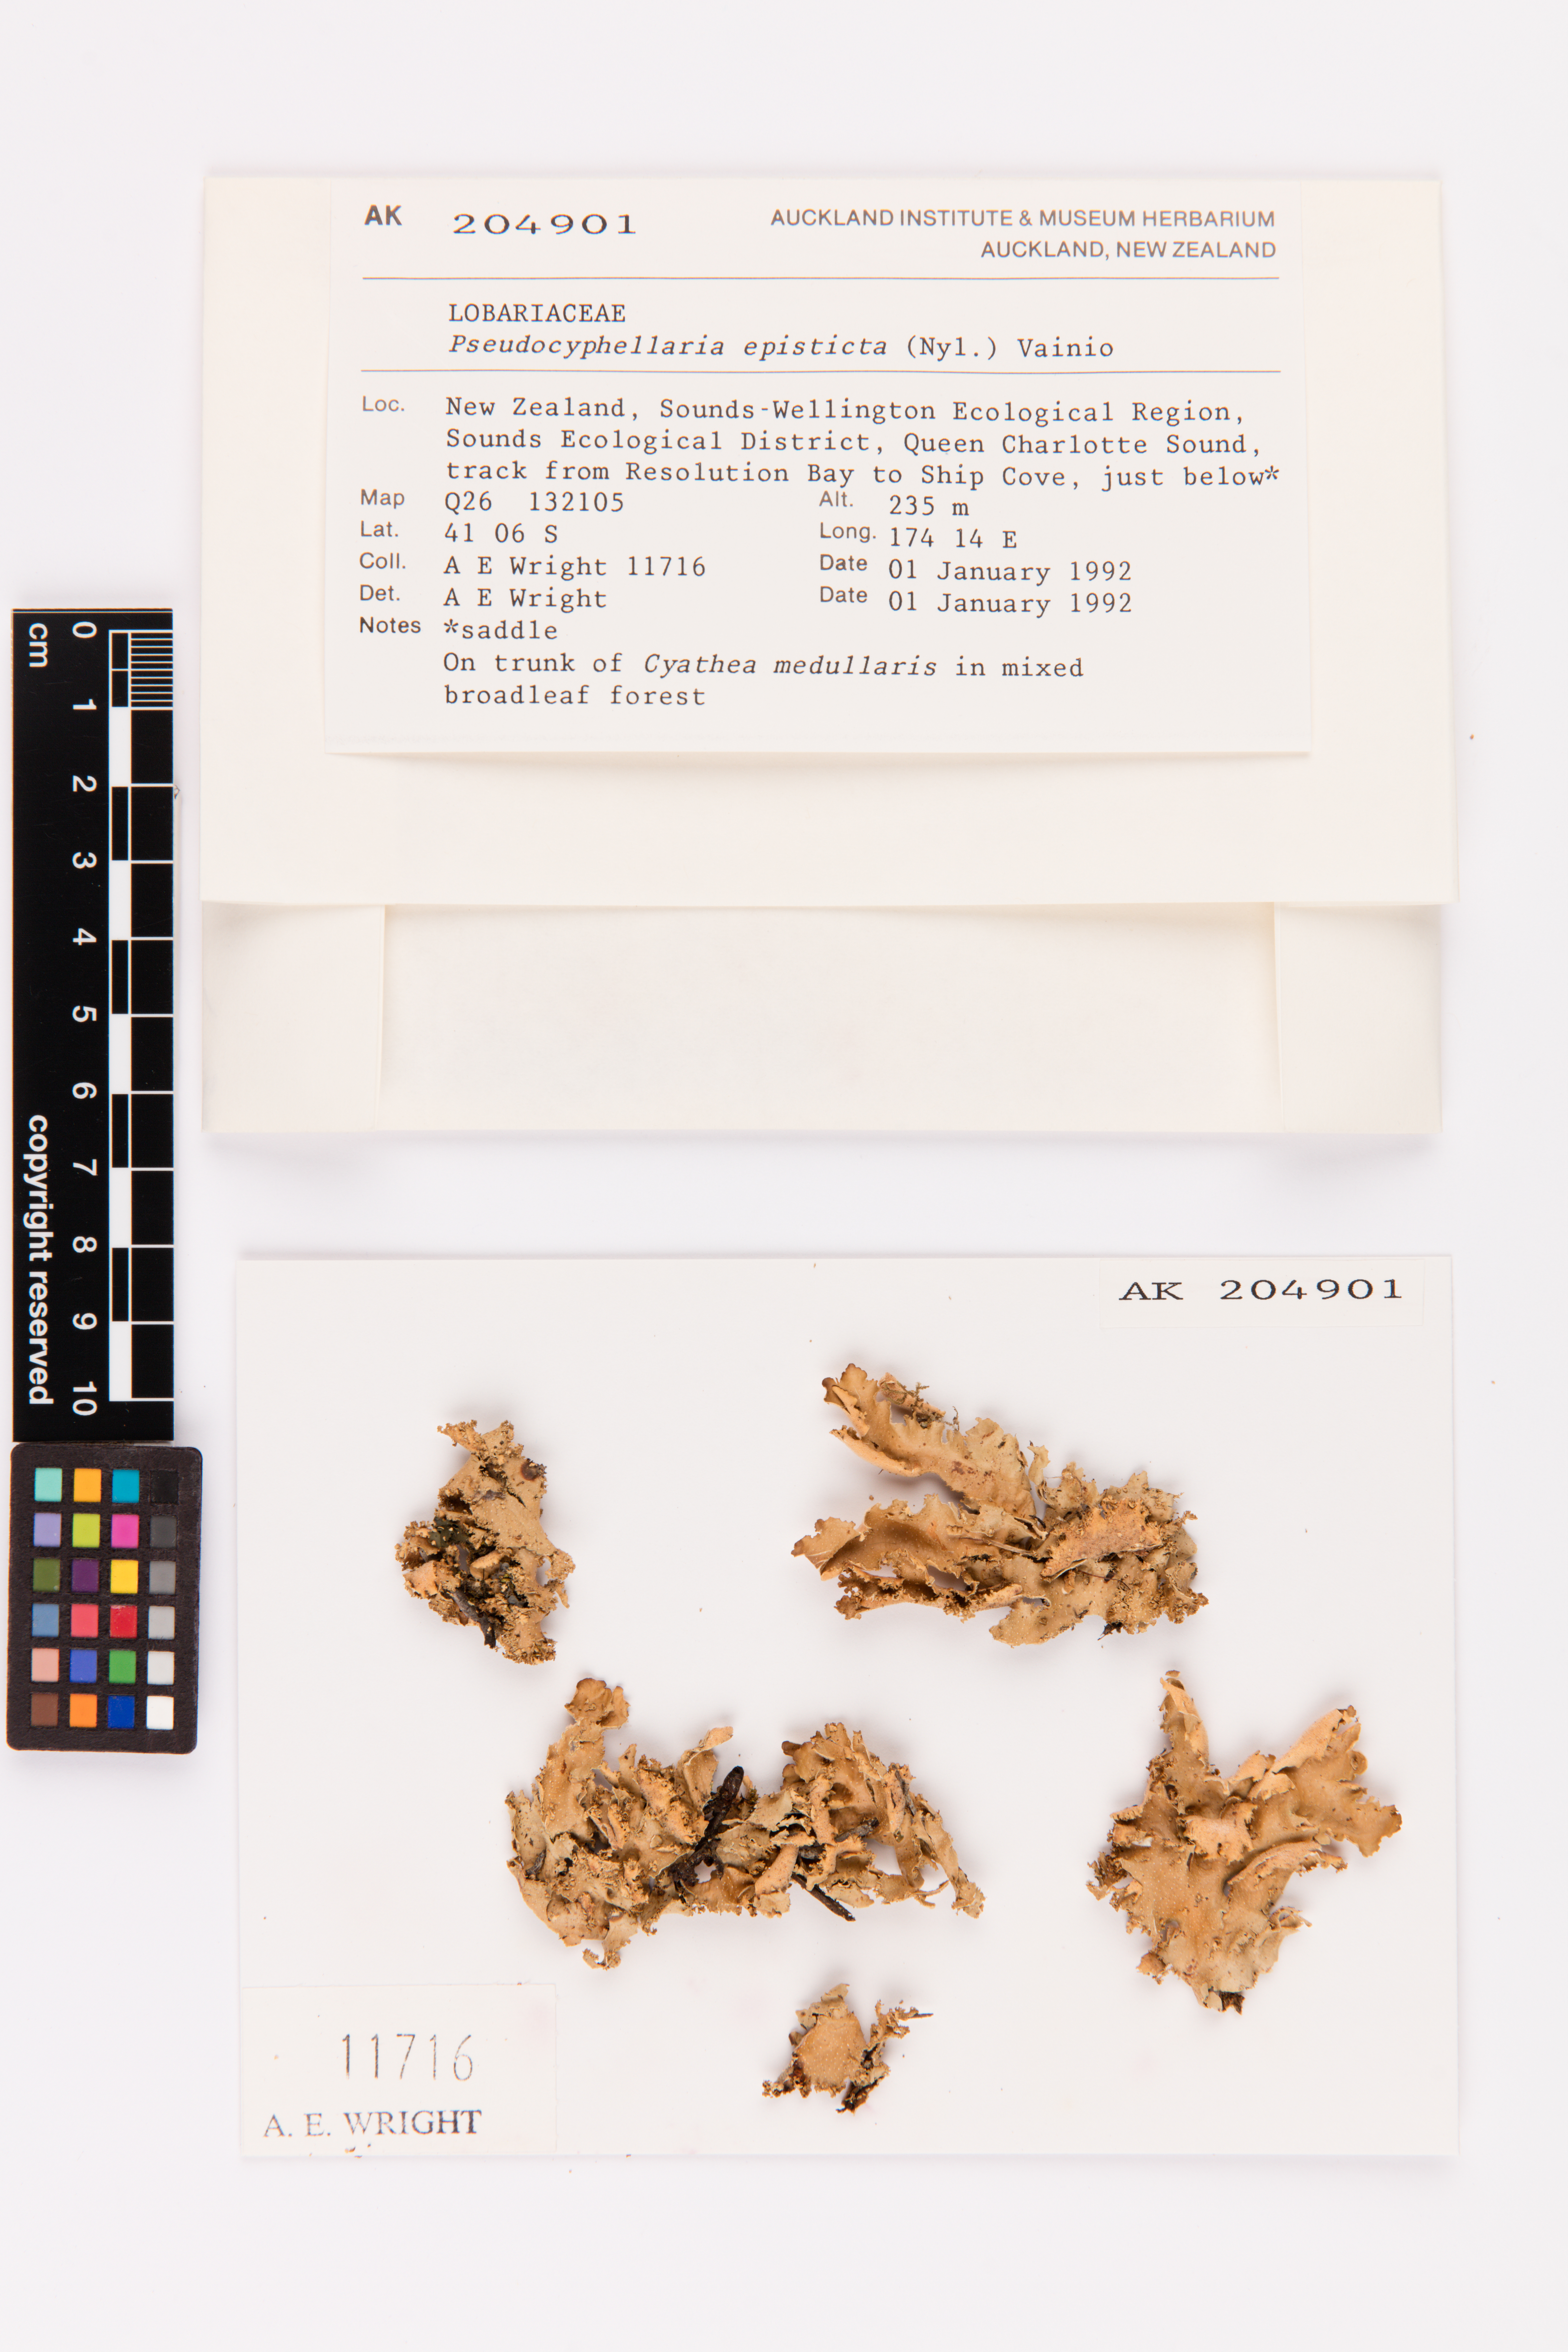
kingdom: Fungi
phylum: Ascomycota
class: Lecanoromycetes
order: Peltigerales
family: Lobariaceae
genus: Pseudocyphellaria
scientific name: Pseudocyphellaria episticta
